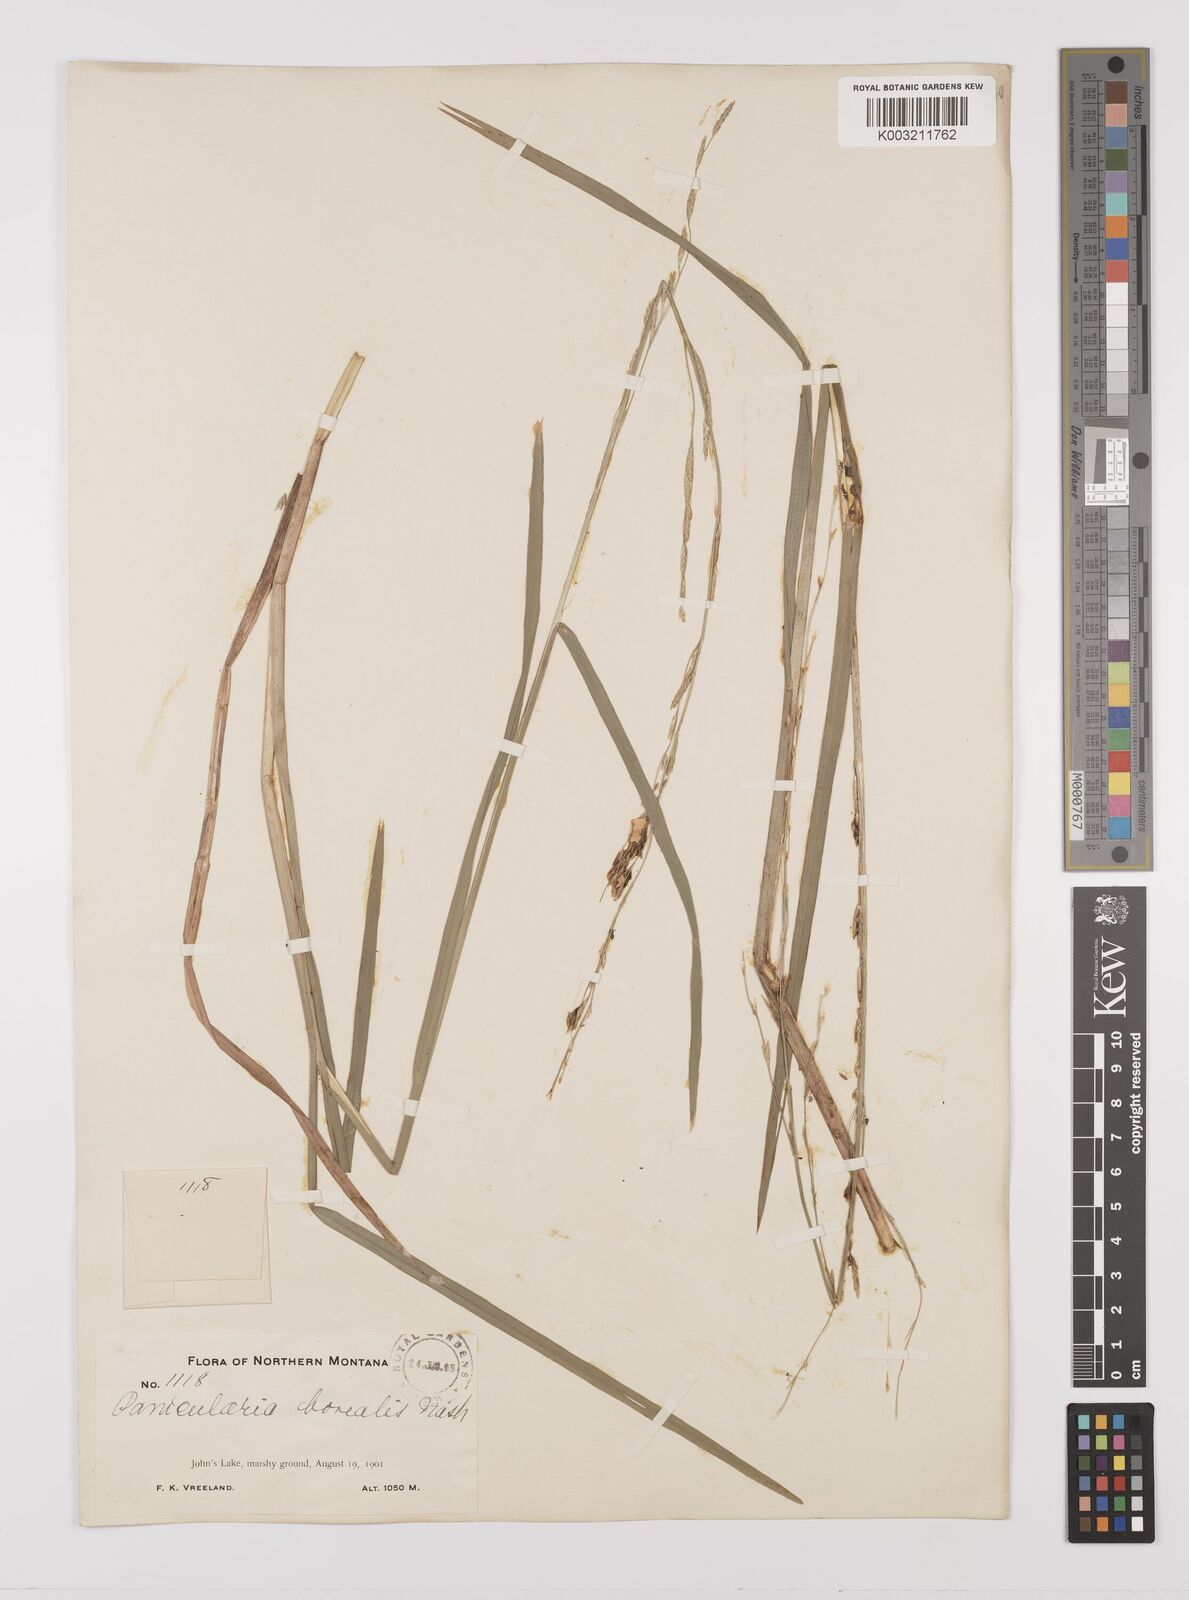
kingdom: Plantae
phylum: Tracheophyta
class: Liliopsida
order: Poales
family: Poaceae
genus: Glyceria
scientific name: Glyceria borealis
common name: Boreal glyceria
